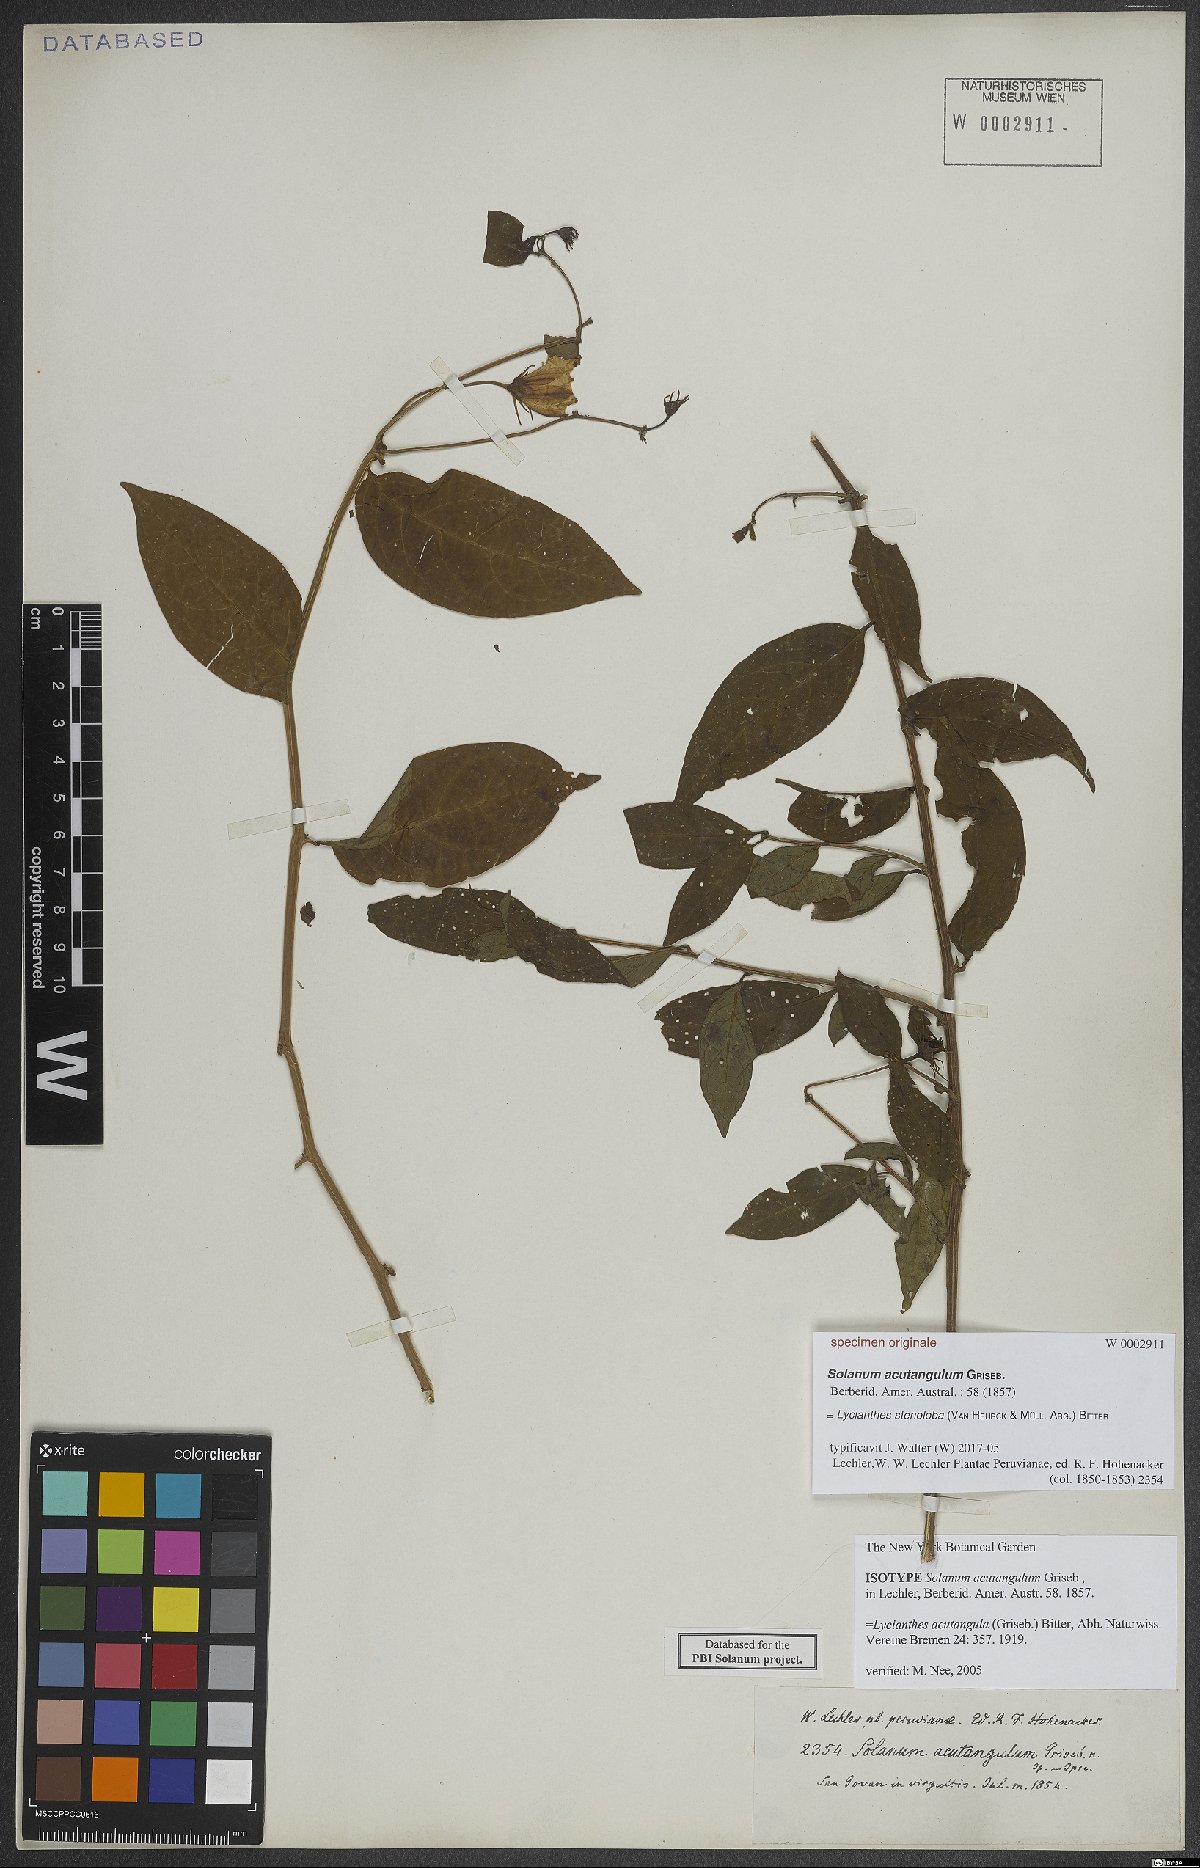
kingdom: Plantae
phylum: Tracheophyta
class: Magnoliopsida
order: Solanales
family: Solanaceae
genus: Lycianthes
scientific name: Lycianthes stenoloba
